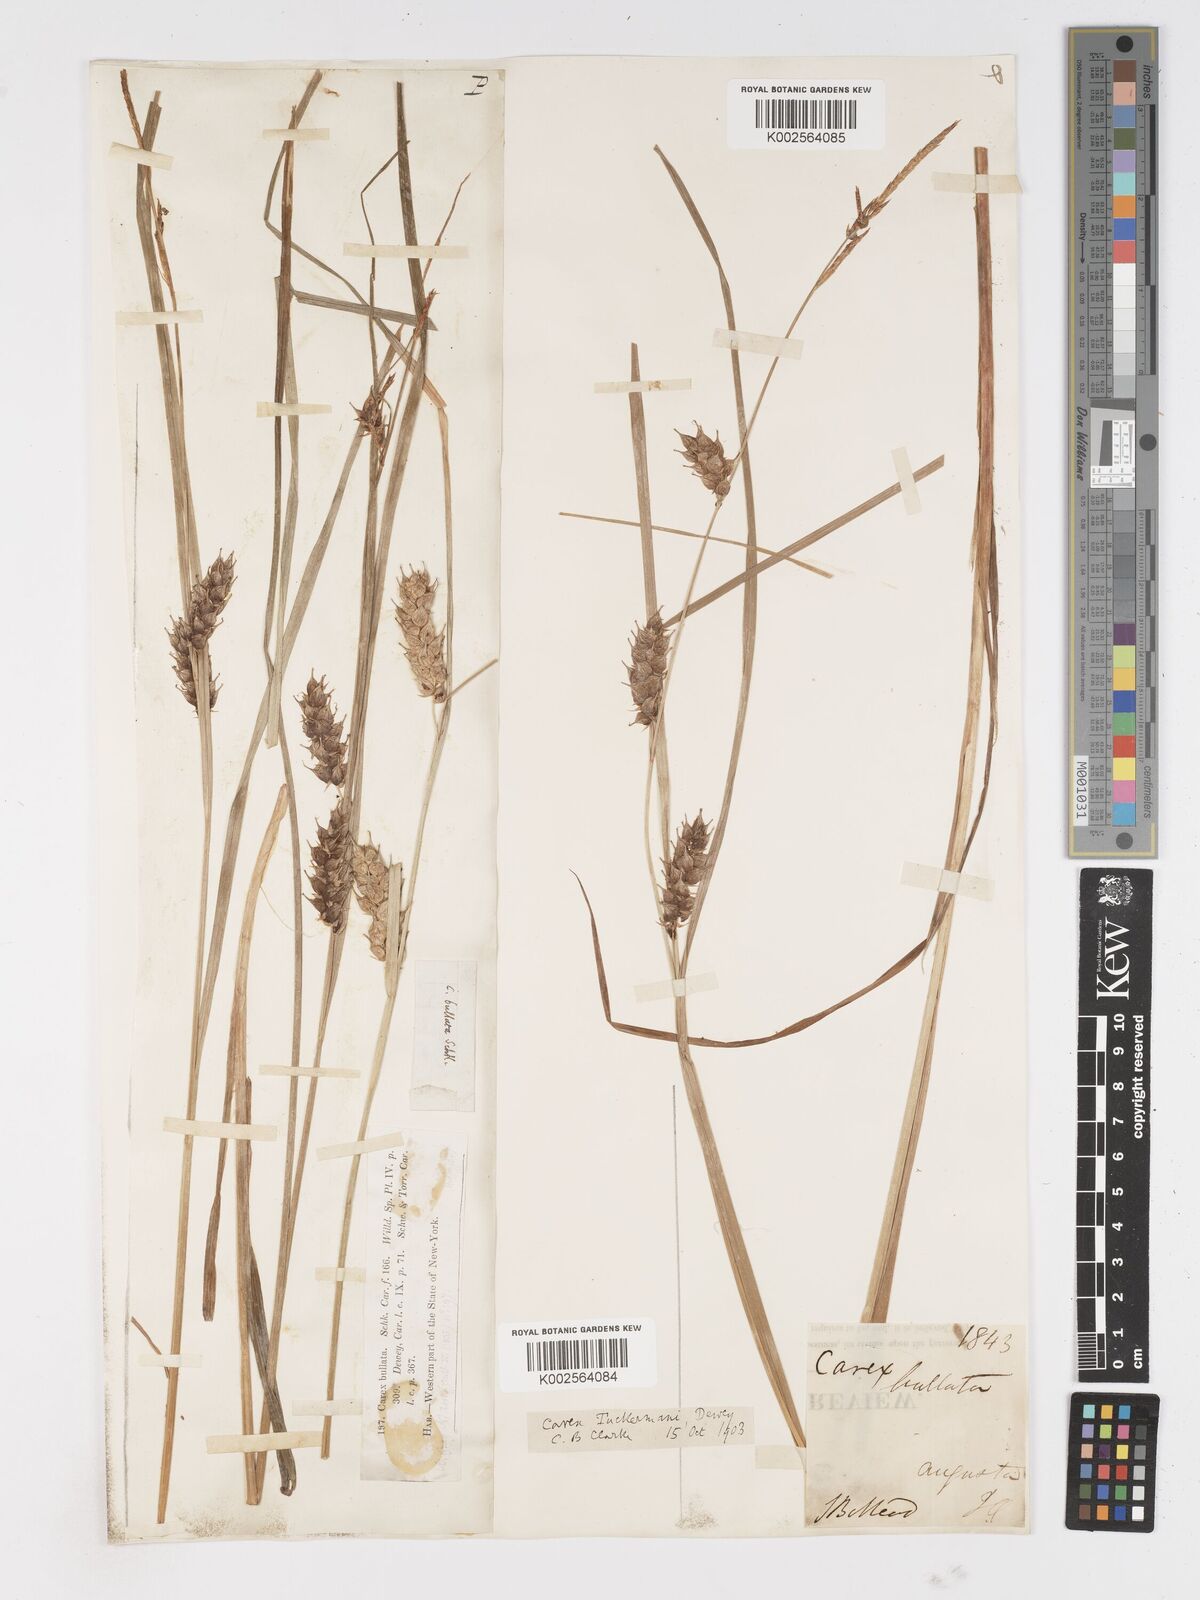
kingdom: Plantae
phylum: Tracheophyta
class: Liliopsida
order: Poales
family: Cyperaceae
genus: Carex
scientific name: Carex tuckermanii
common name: Tuckerman's sedge
